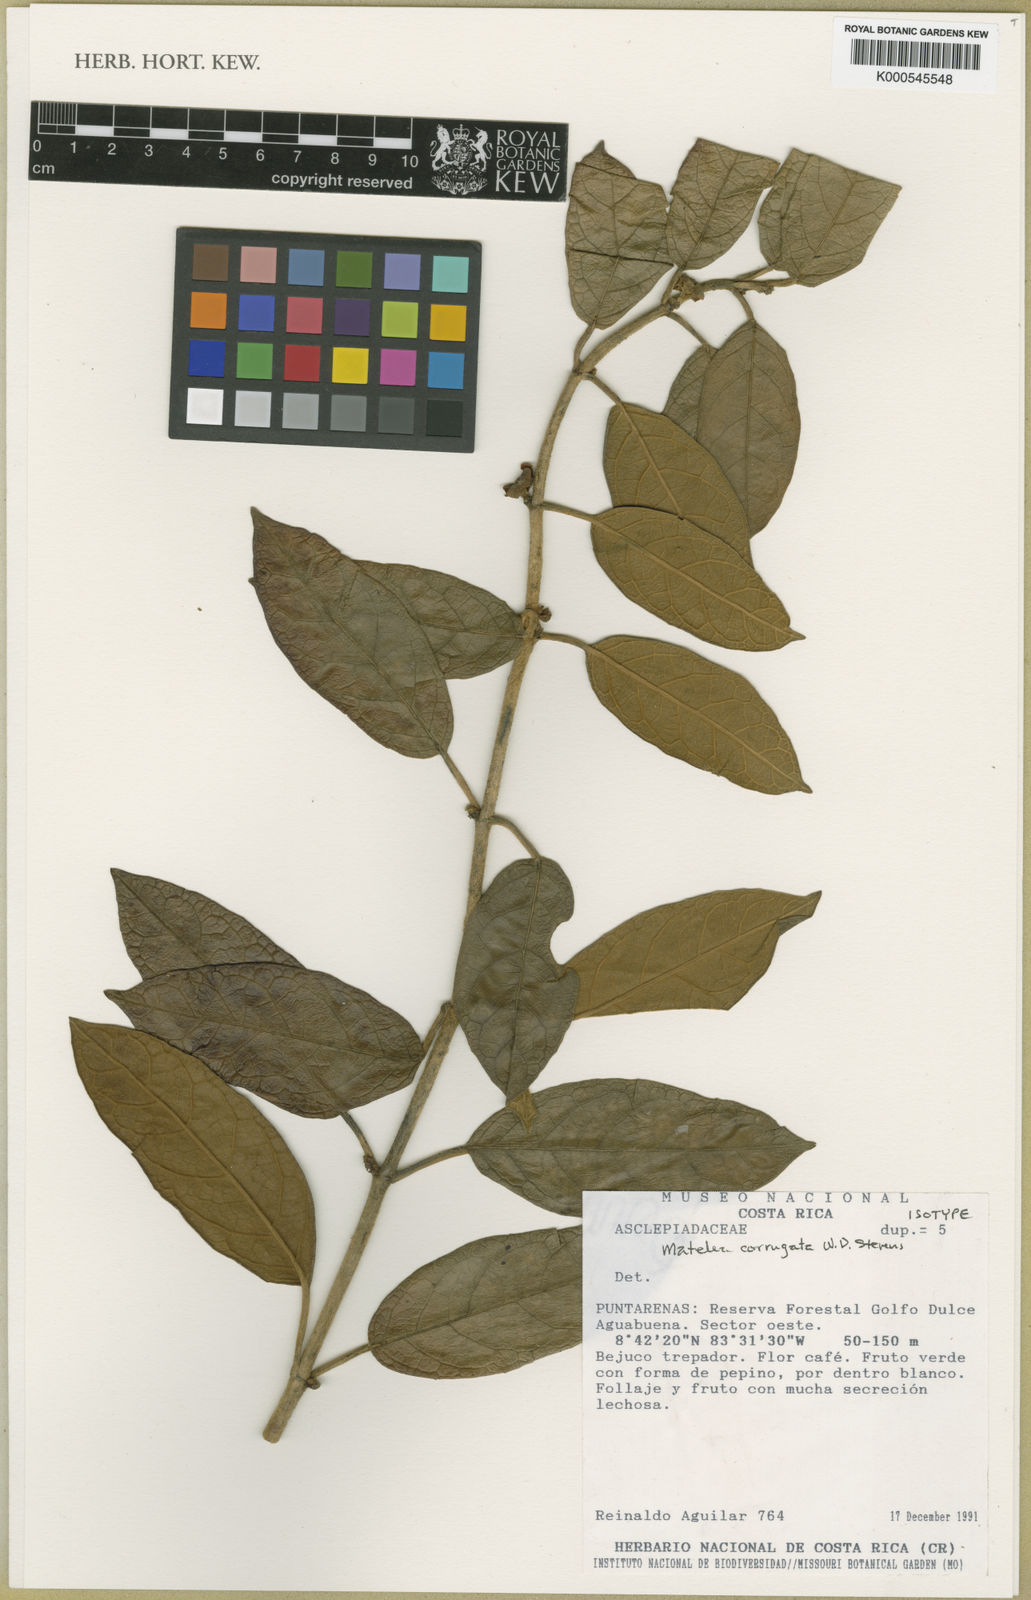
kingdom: Plantae
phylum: Tracheophyta
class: Magnoliopsida
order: Gentianales
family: Apocynaceae
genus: Matelea
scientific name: Matelea corrugata
